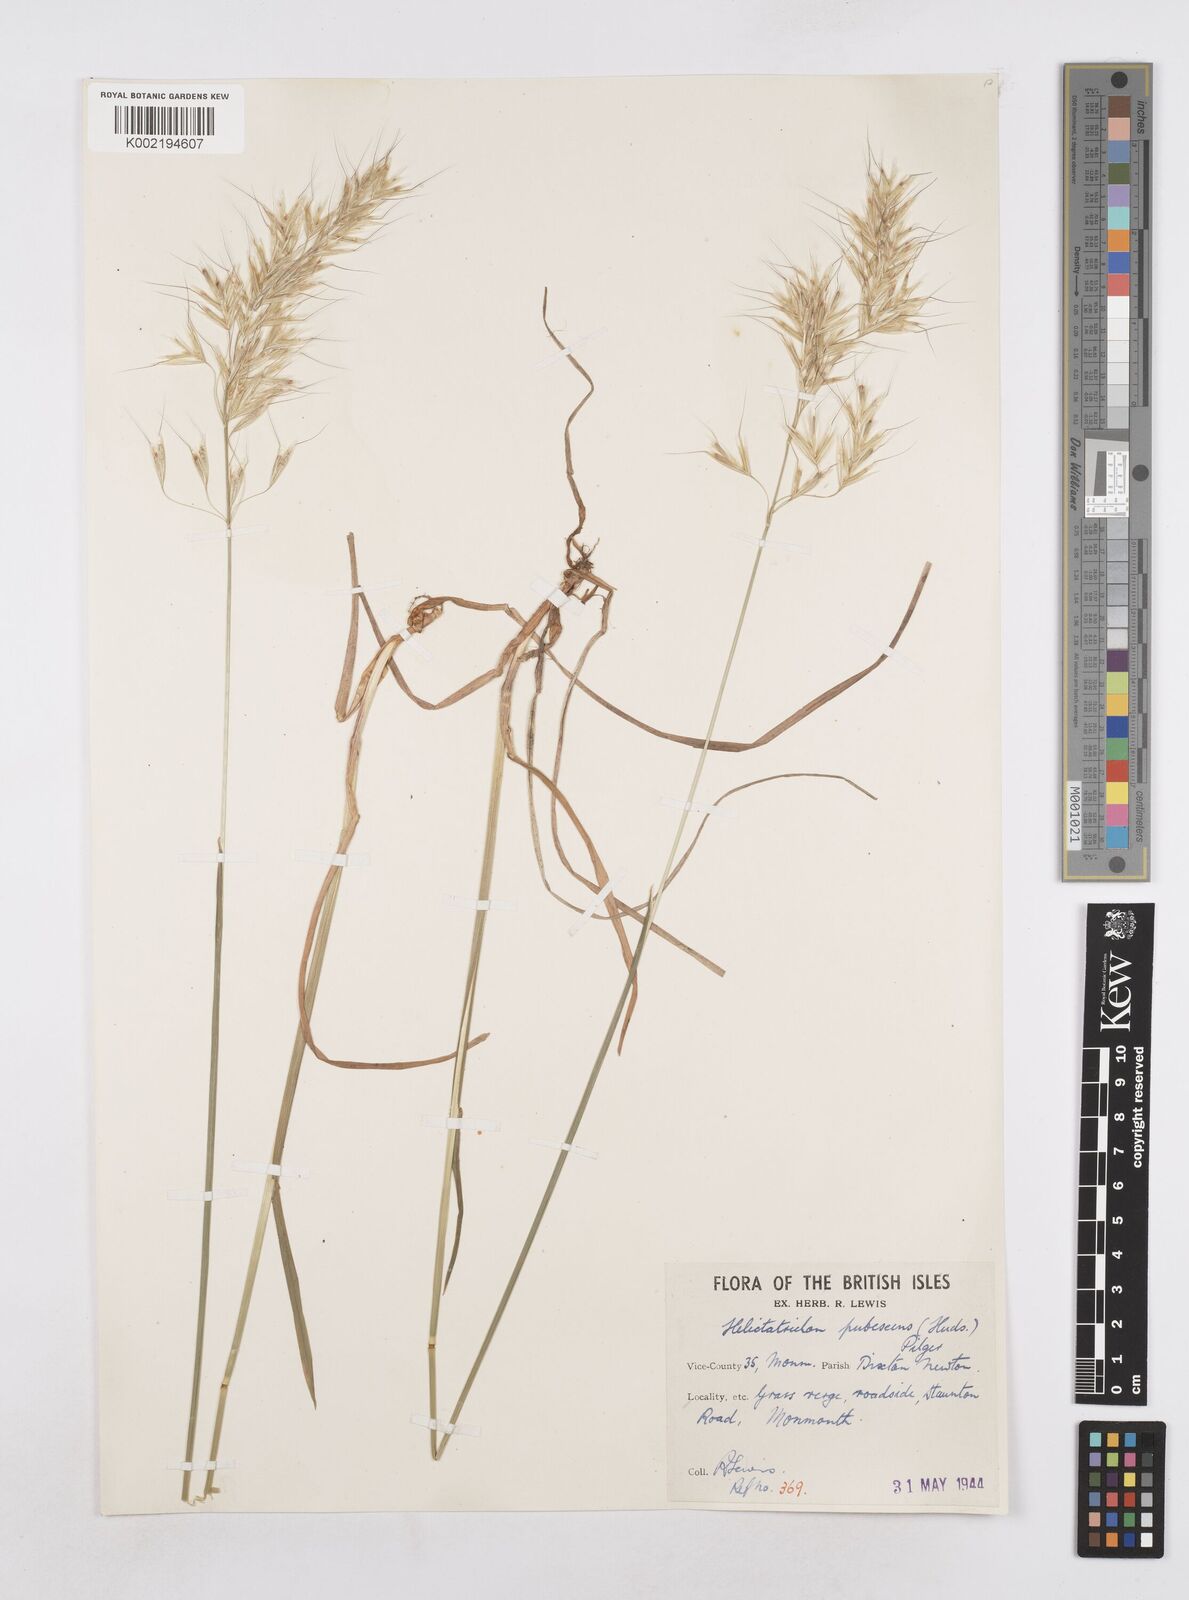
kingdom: Plantae
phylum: Tracheophyta
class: Liliopsida
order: Poales
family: Poaceae
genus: Avenula
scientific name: Avenula pubescens
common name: Downy alpine oatgrass
